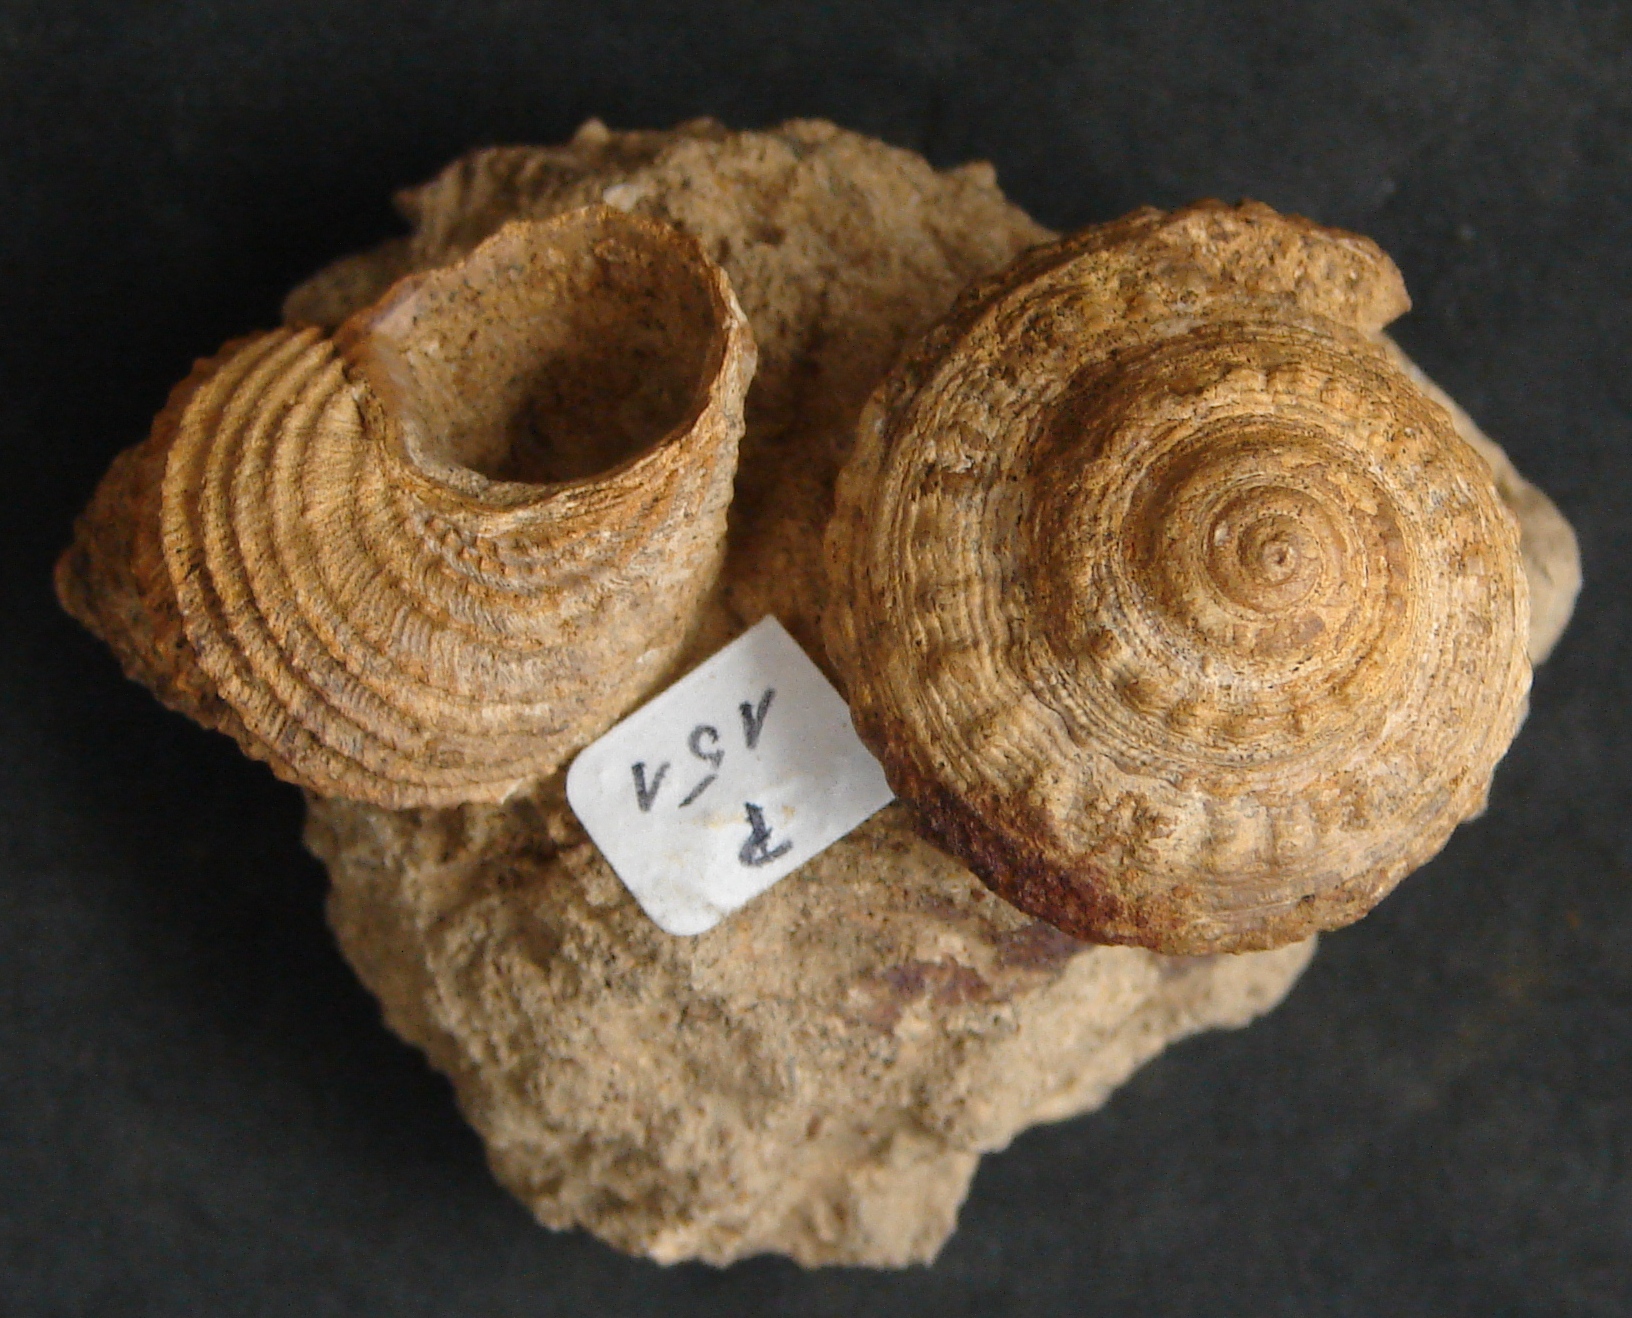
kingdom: Animalia
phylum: Mollusca
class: Gastropoda
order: Pleurotomariida
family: Pleurotomariidae
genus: Obornella
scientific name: Obornella Pleurotomaria lentiformis
